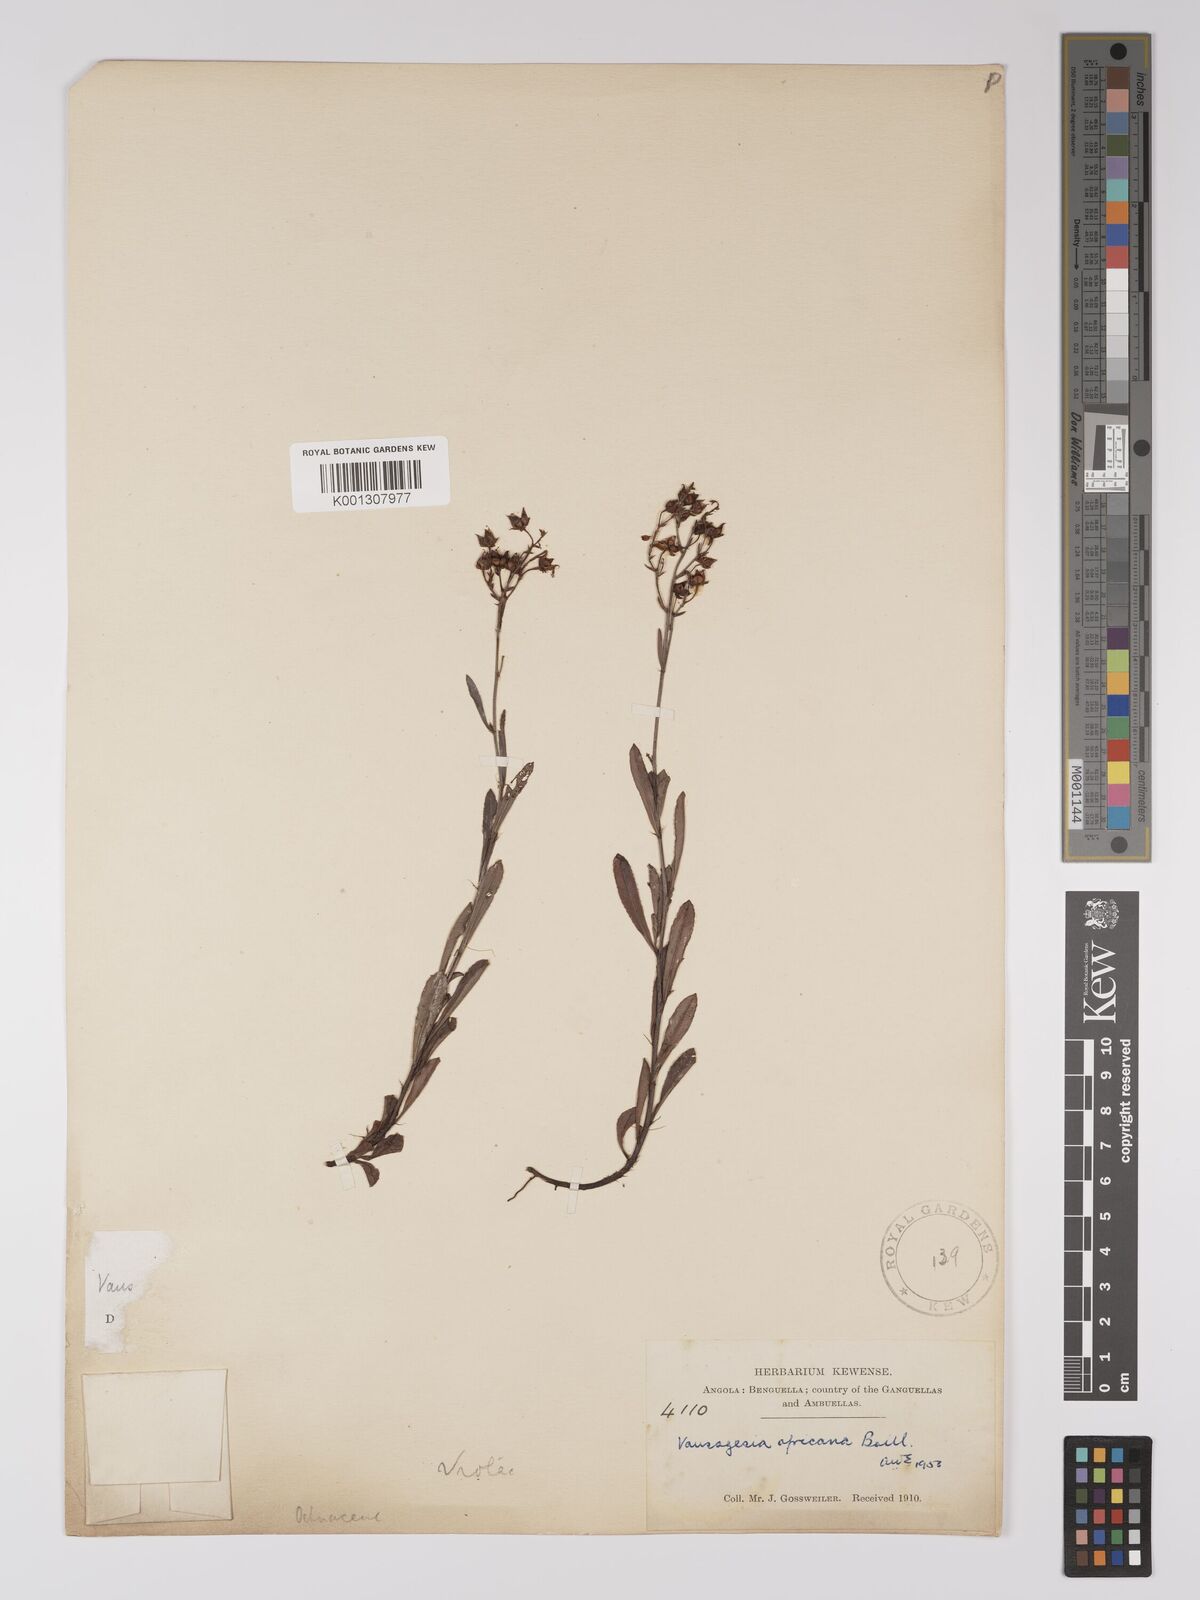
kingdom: Plantae
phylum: Tracheophyta
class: Magnoliopsida
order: Malpighiales
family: Ochnaceae
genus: Sauvagesia
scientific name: Sauvagesia
